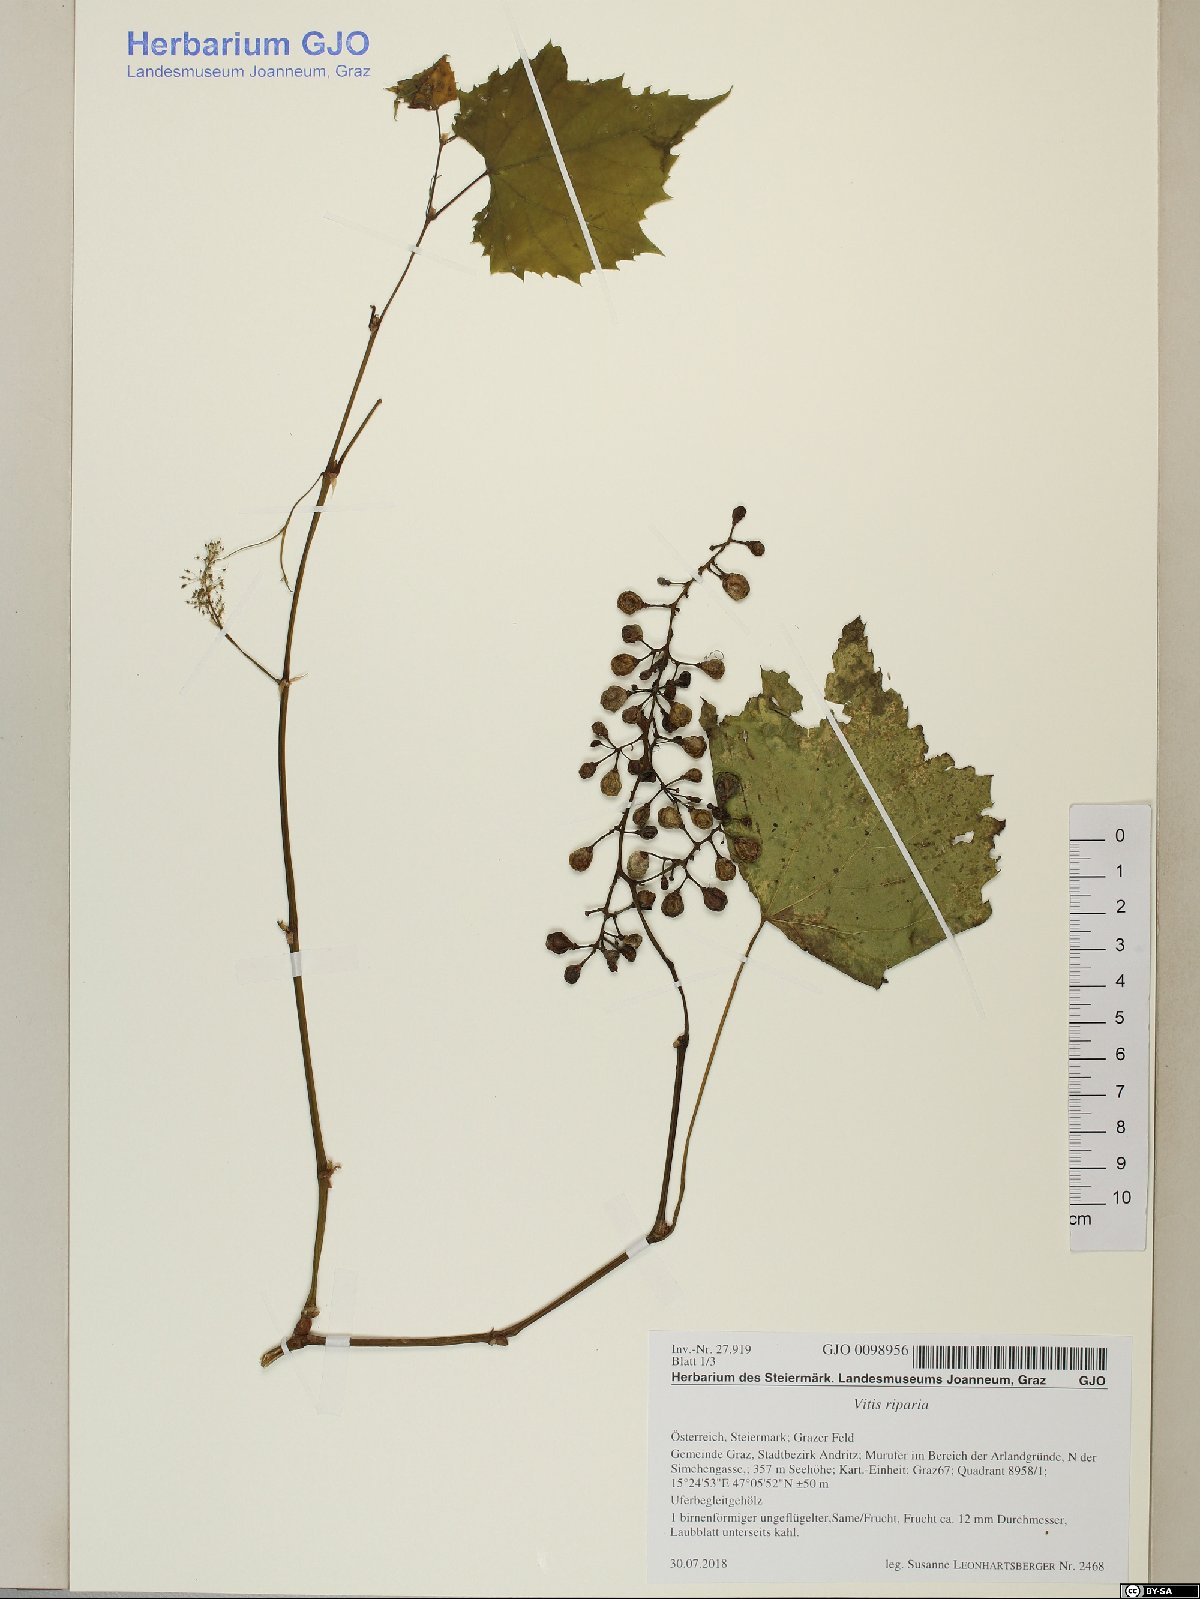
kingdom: Plantae
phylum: Tracheophyta
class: Magnoliopsida
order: Vitales
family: Vitaceae
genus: Vitis
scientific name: Vitis riparia
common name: Frost grape
